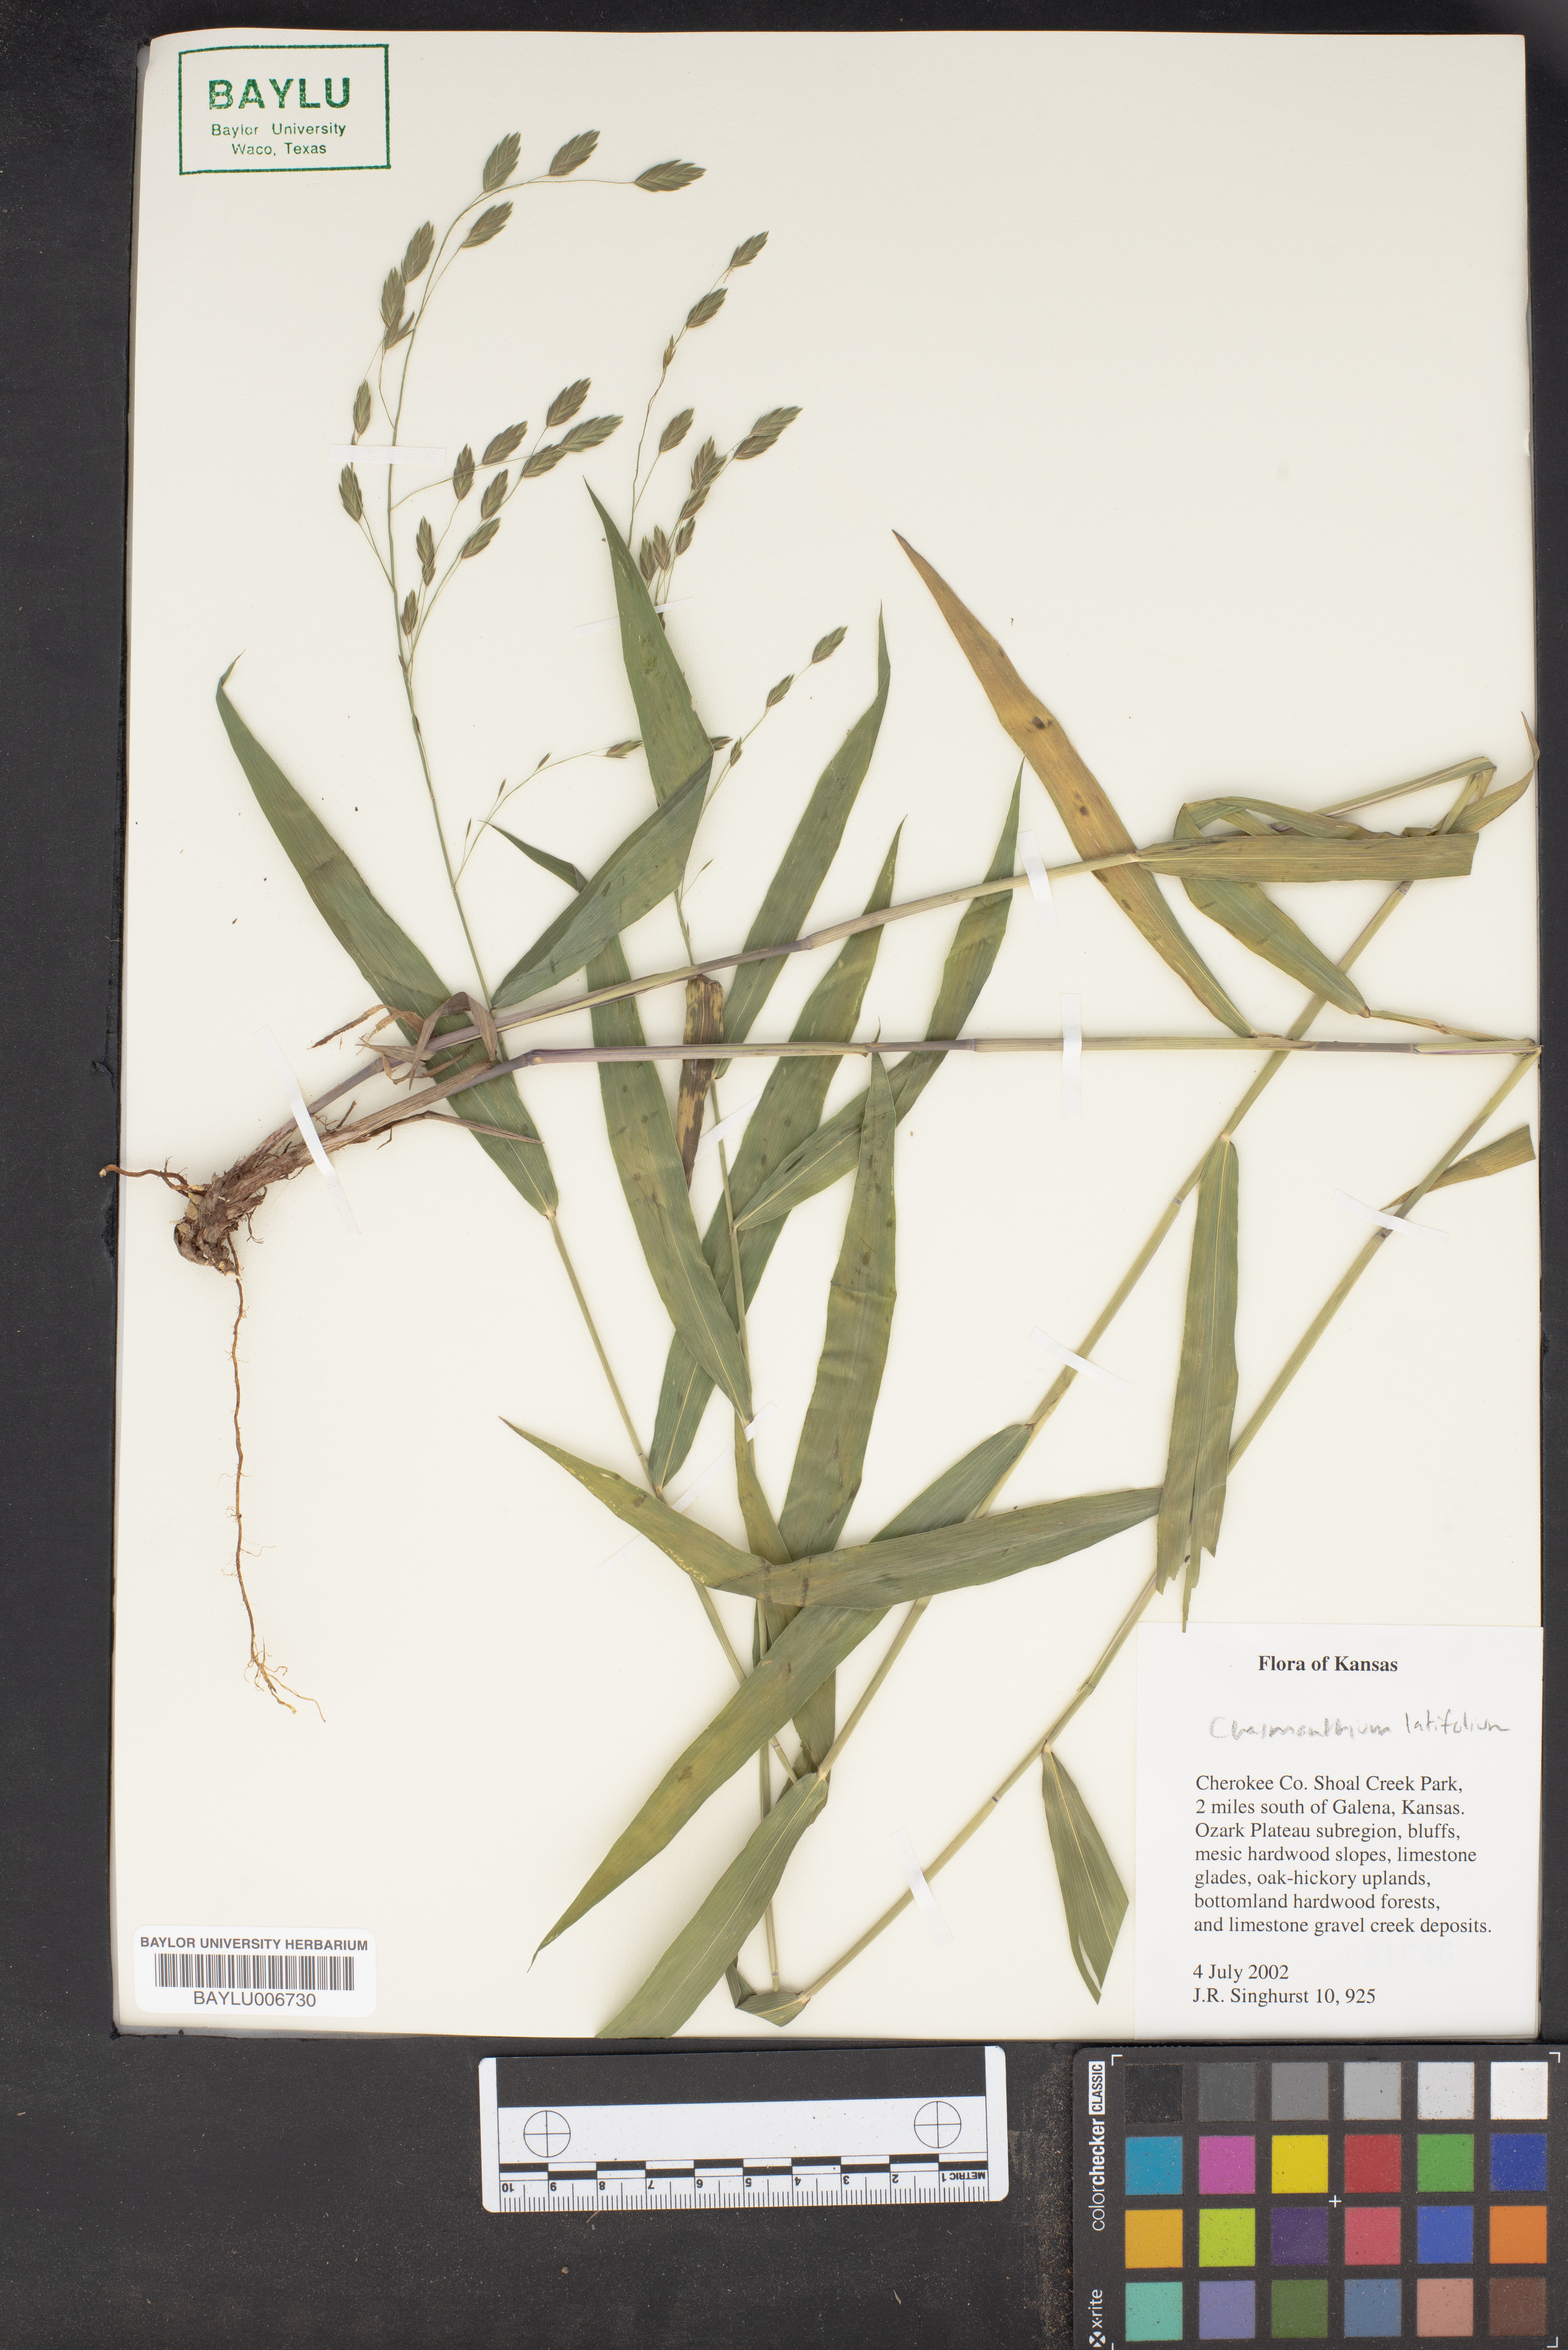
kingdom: Plantae
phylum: Tracheophyta
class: Liliopsida
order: Poales
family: Poaceae
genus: Chasmanthium
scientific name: Chasmanthium latifolium
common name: Broad-leaved chasmanthium
